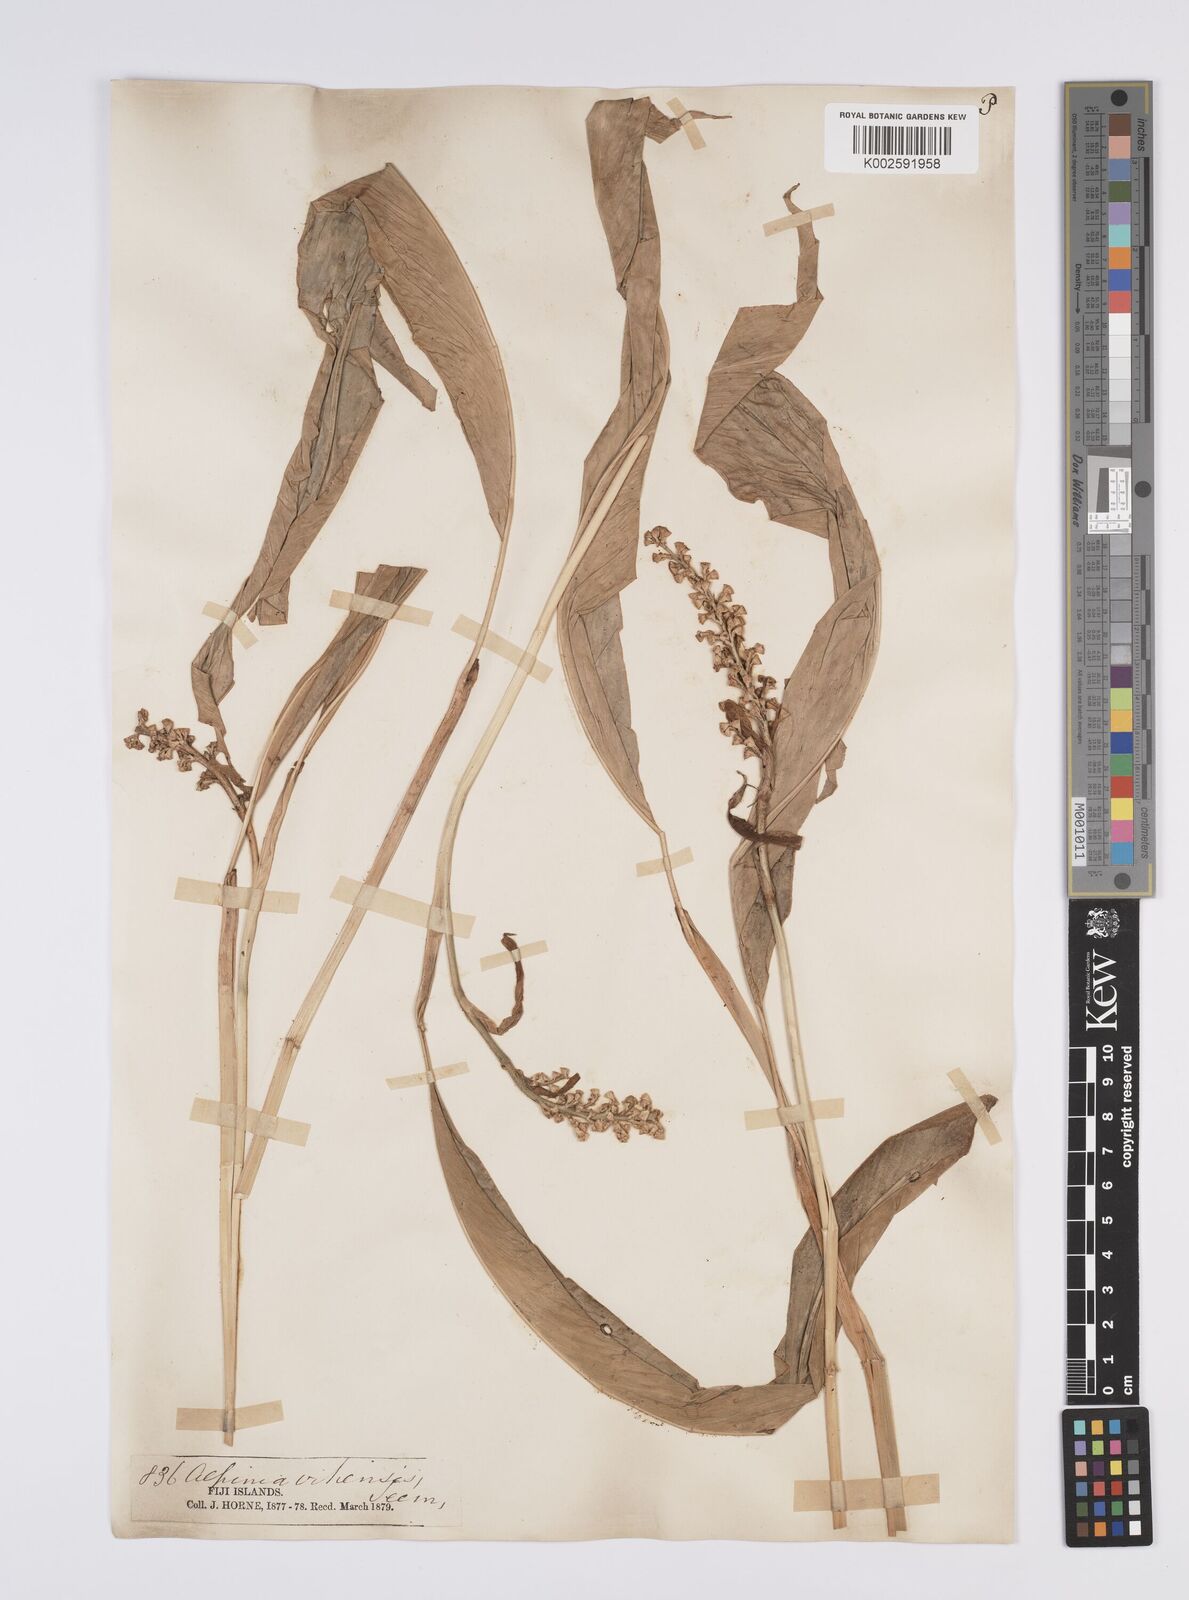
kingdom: Plantae
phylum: Tracheophyta
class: Liliopsida
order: Zingiberales
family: Zingiberaceae
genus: Alpinia
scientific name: Alpinia vitiensis
